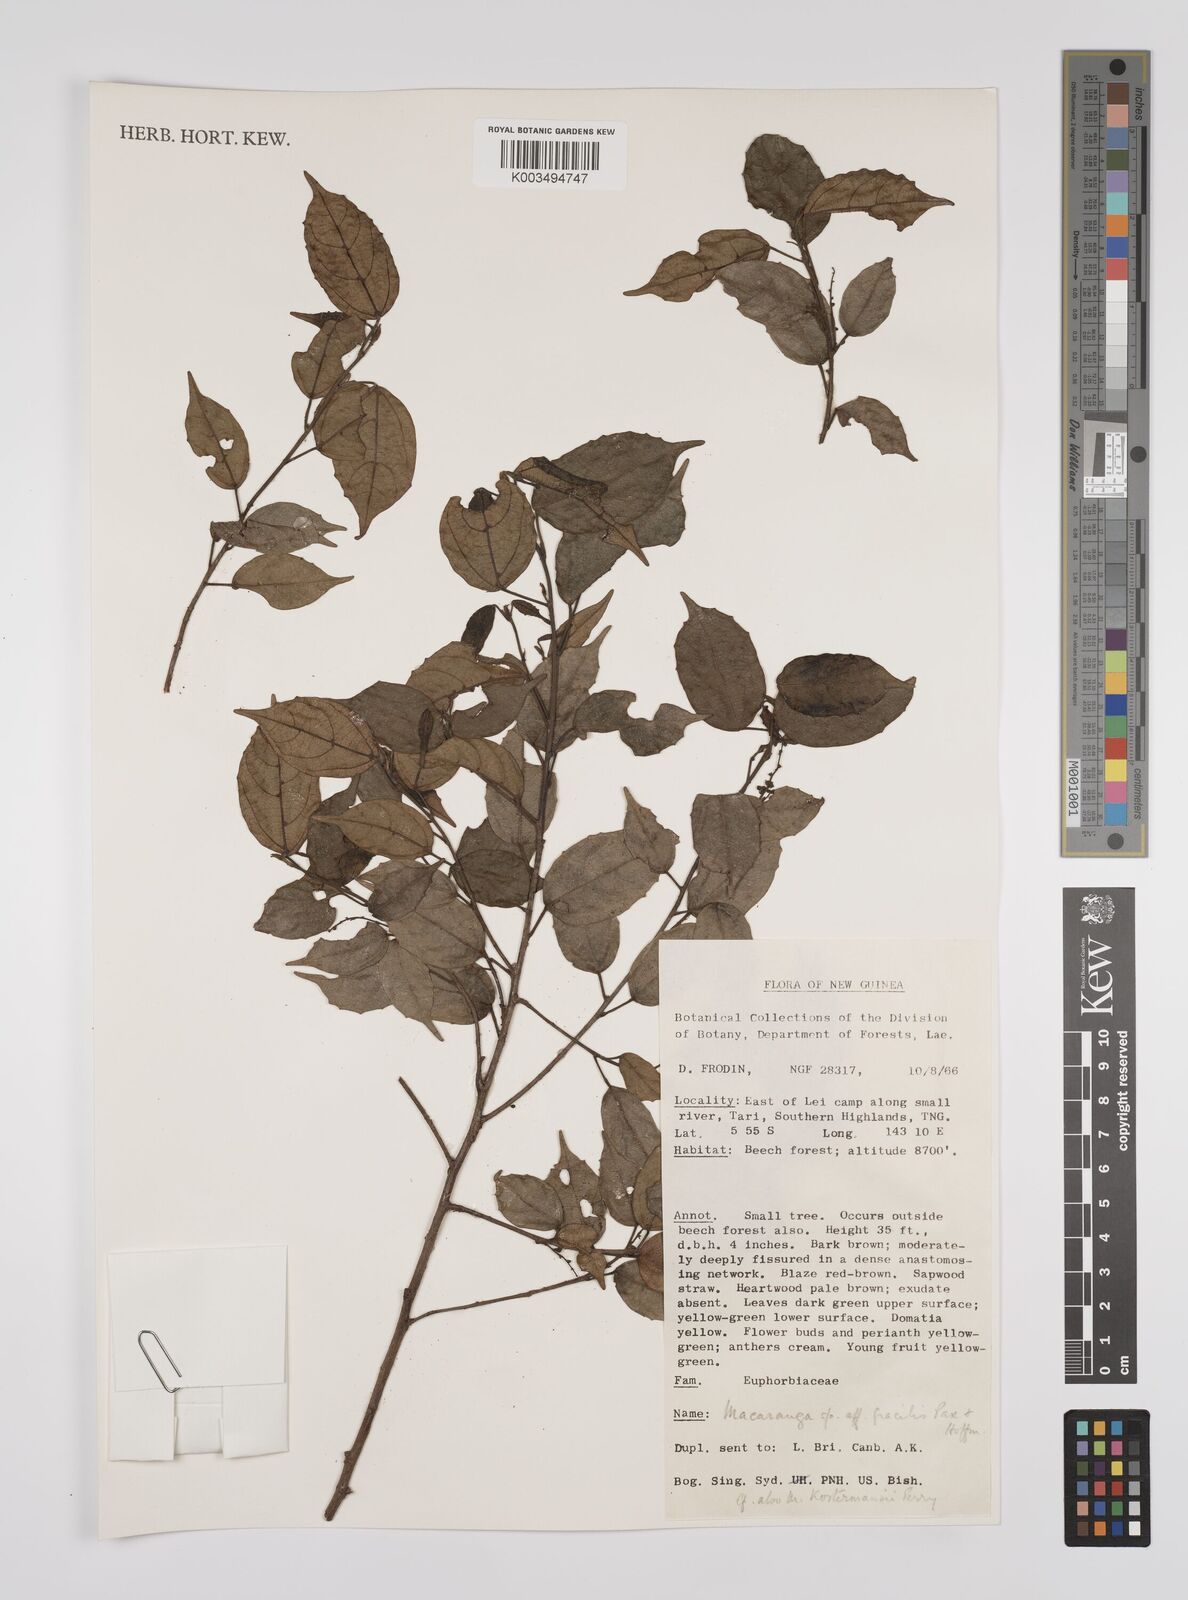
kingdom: Plantae
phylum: Tracheophyta
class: Magnoliopsida
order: Malpighiales
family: Euphorbiaceae
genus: Macaranga
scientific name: Macaranga gracilis
